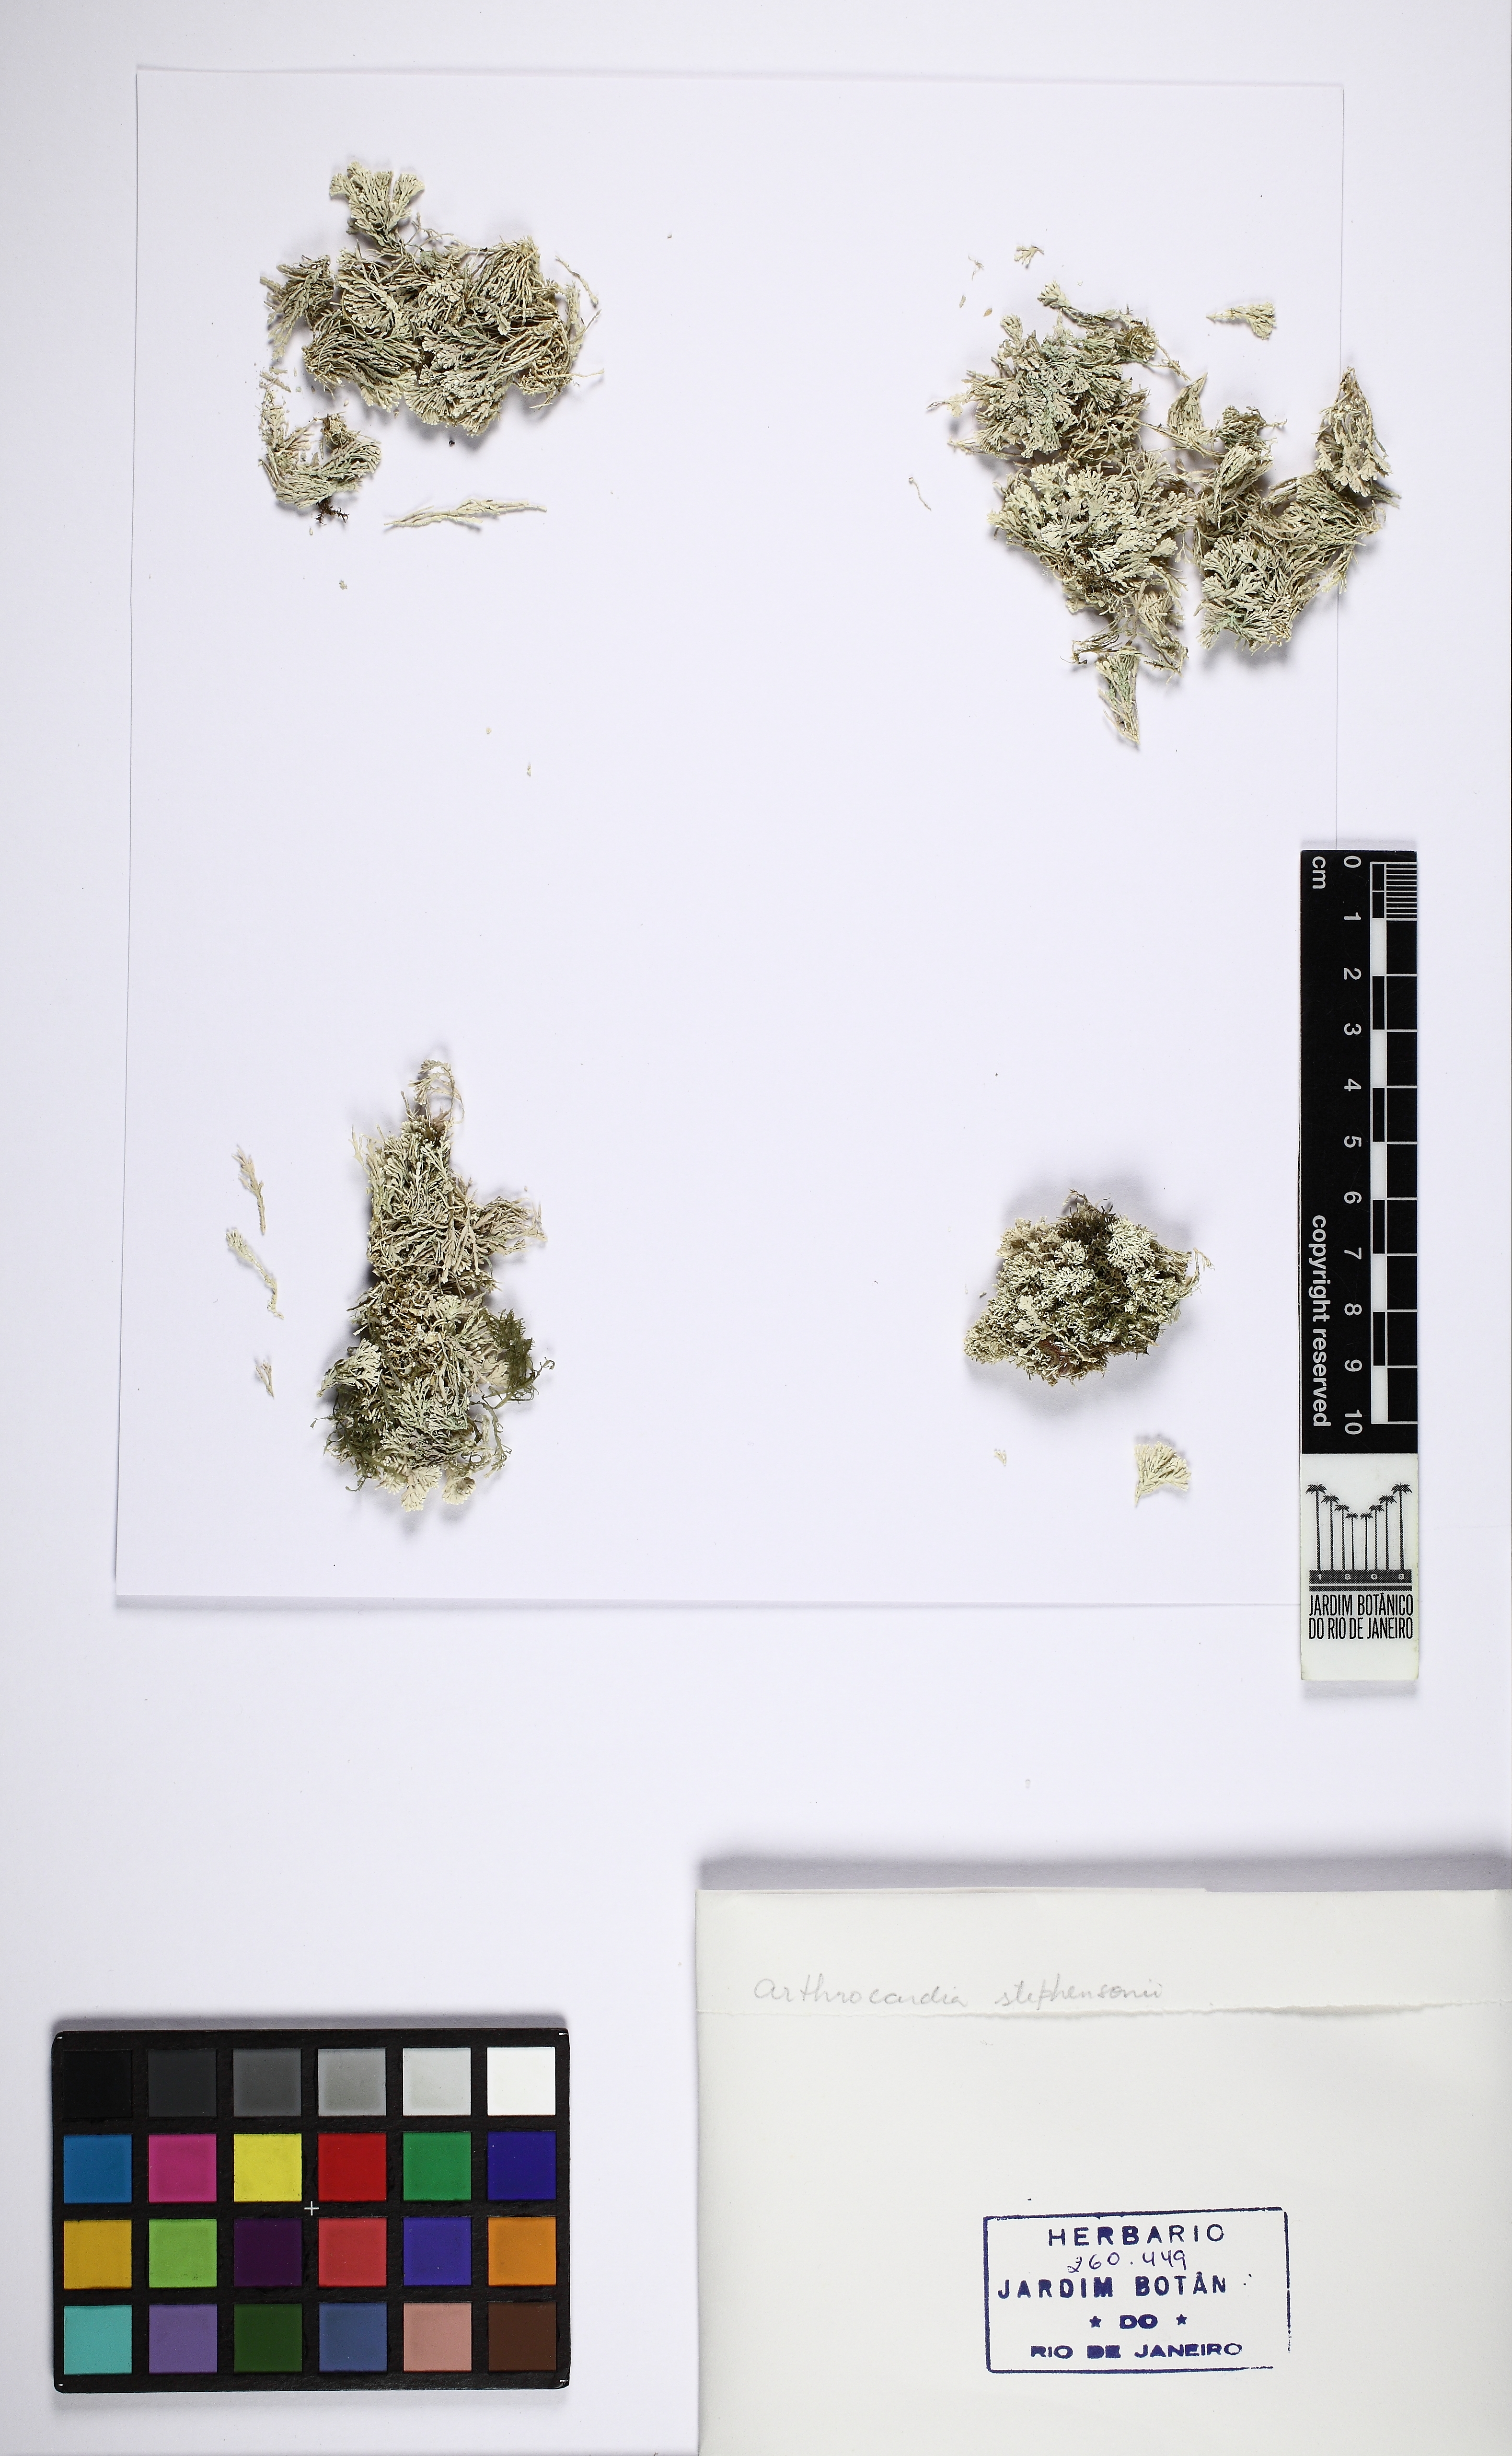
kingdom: Plantae
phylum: Rhodophyta
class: Florideophyceae
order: Corallinales
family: Corallinaceae
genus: Arthrocardia
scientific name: Arthrocardia variabilis
